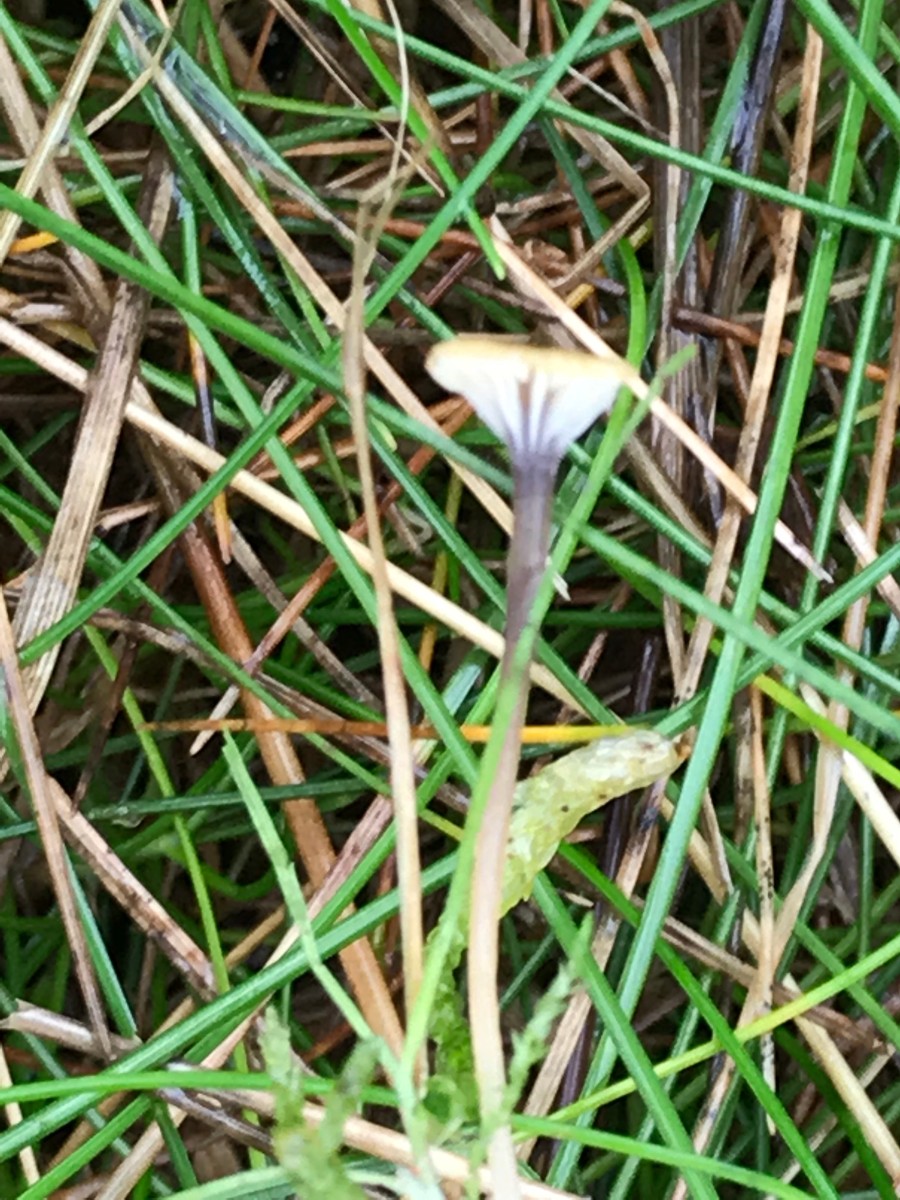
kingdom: Fungi
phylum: Basidiomycota
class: Agaricomycetes
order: Hymenochaetales
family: Rickenellaceae
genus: Rickenella
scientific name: Rickenella swartzii
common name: finstokket mosnavlehat
